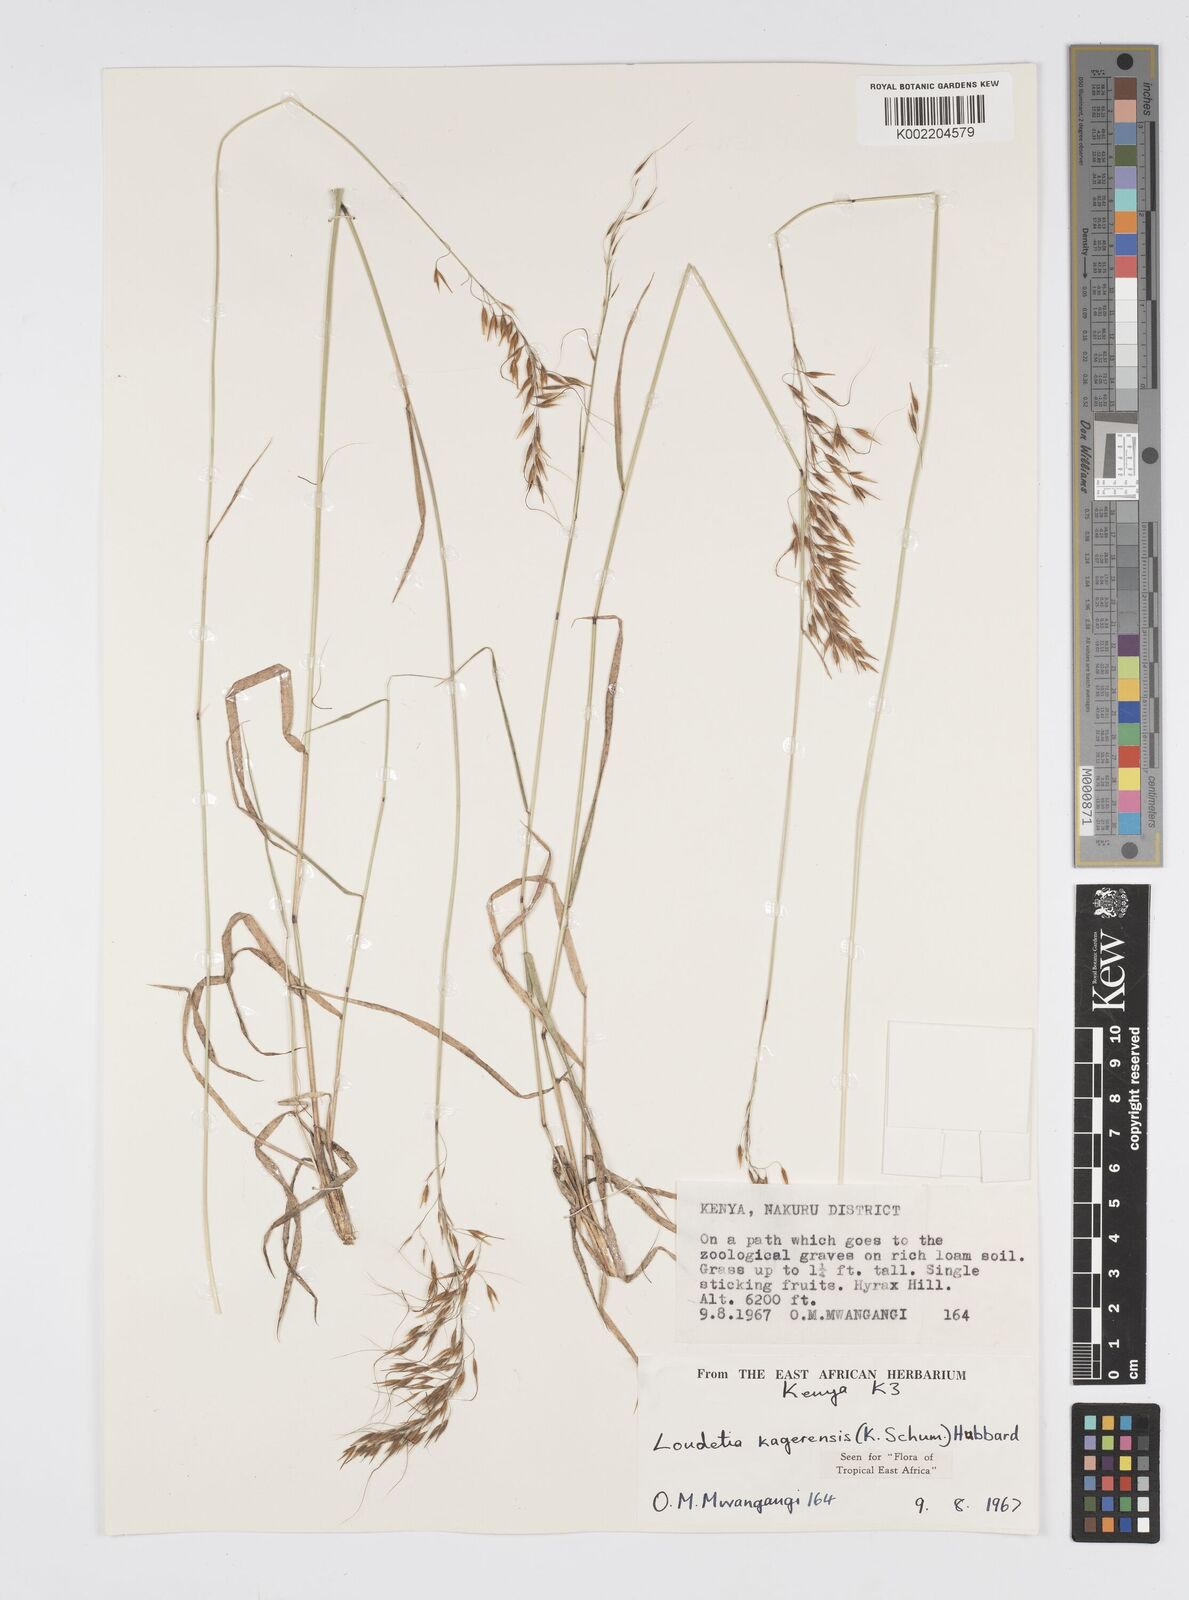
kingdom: Plantae
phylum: Tracheophyta
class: Liliopsida
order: Poales
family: Poaceae
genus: Loudetia
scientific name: Loudetia kagerensis
